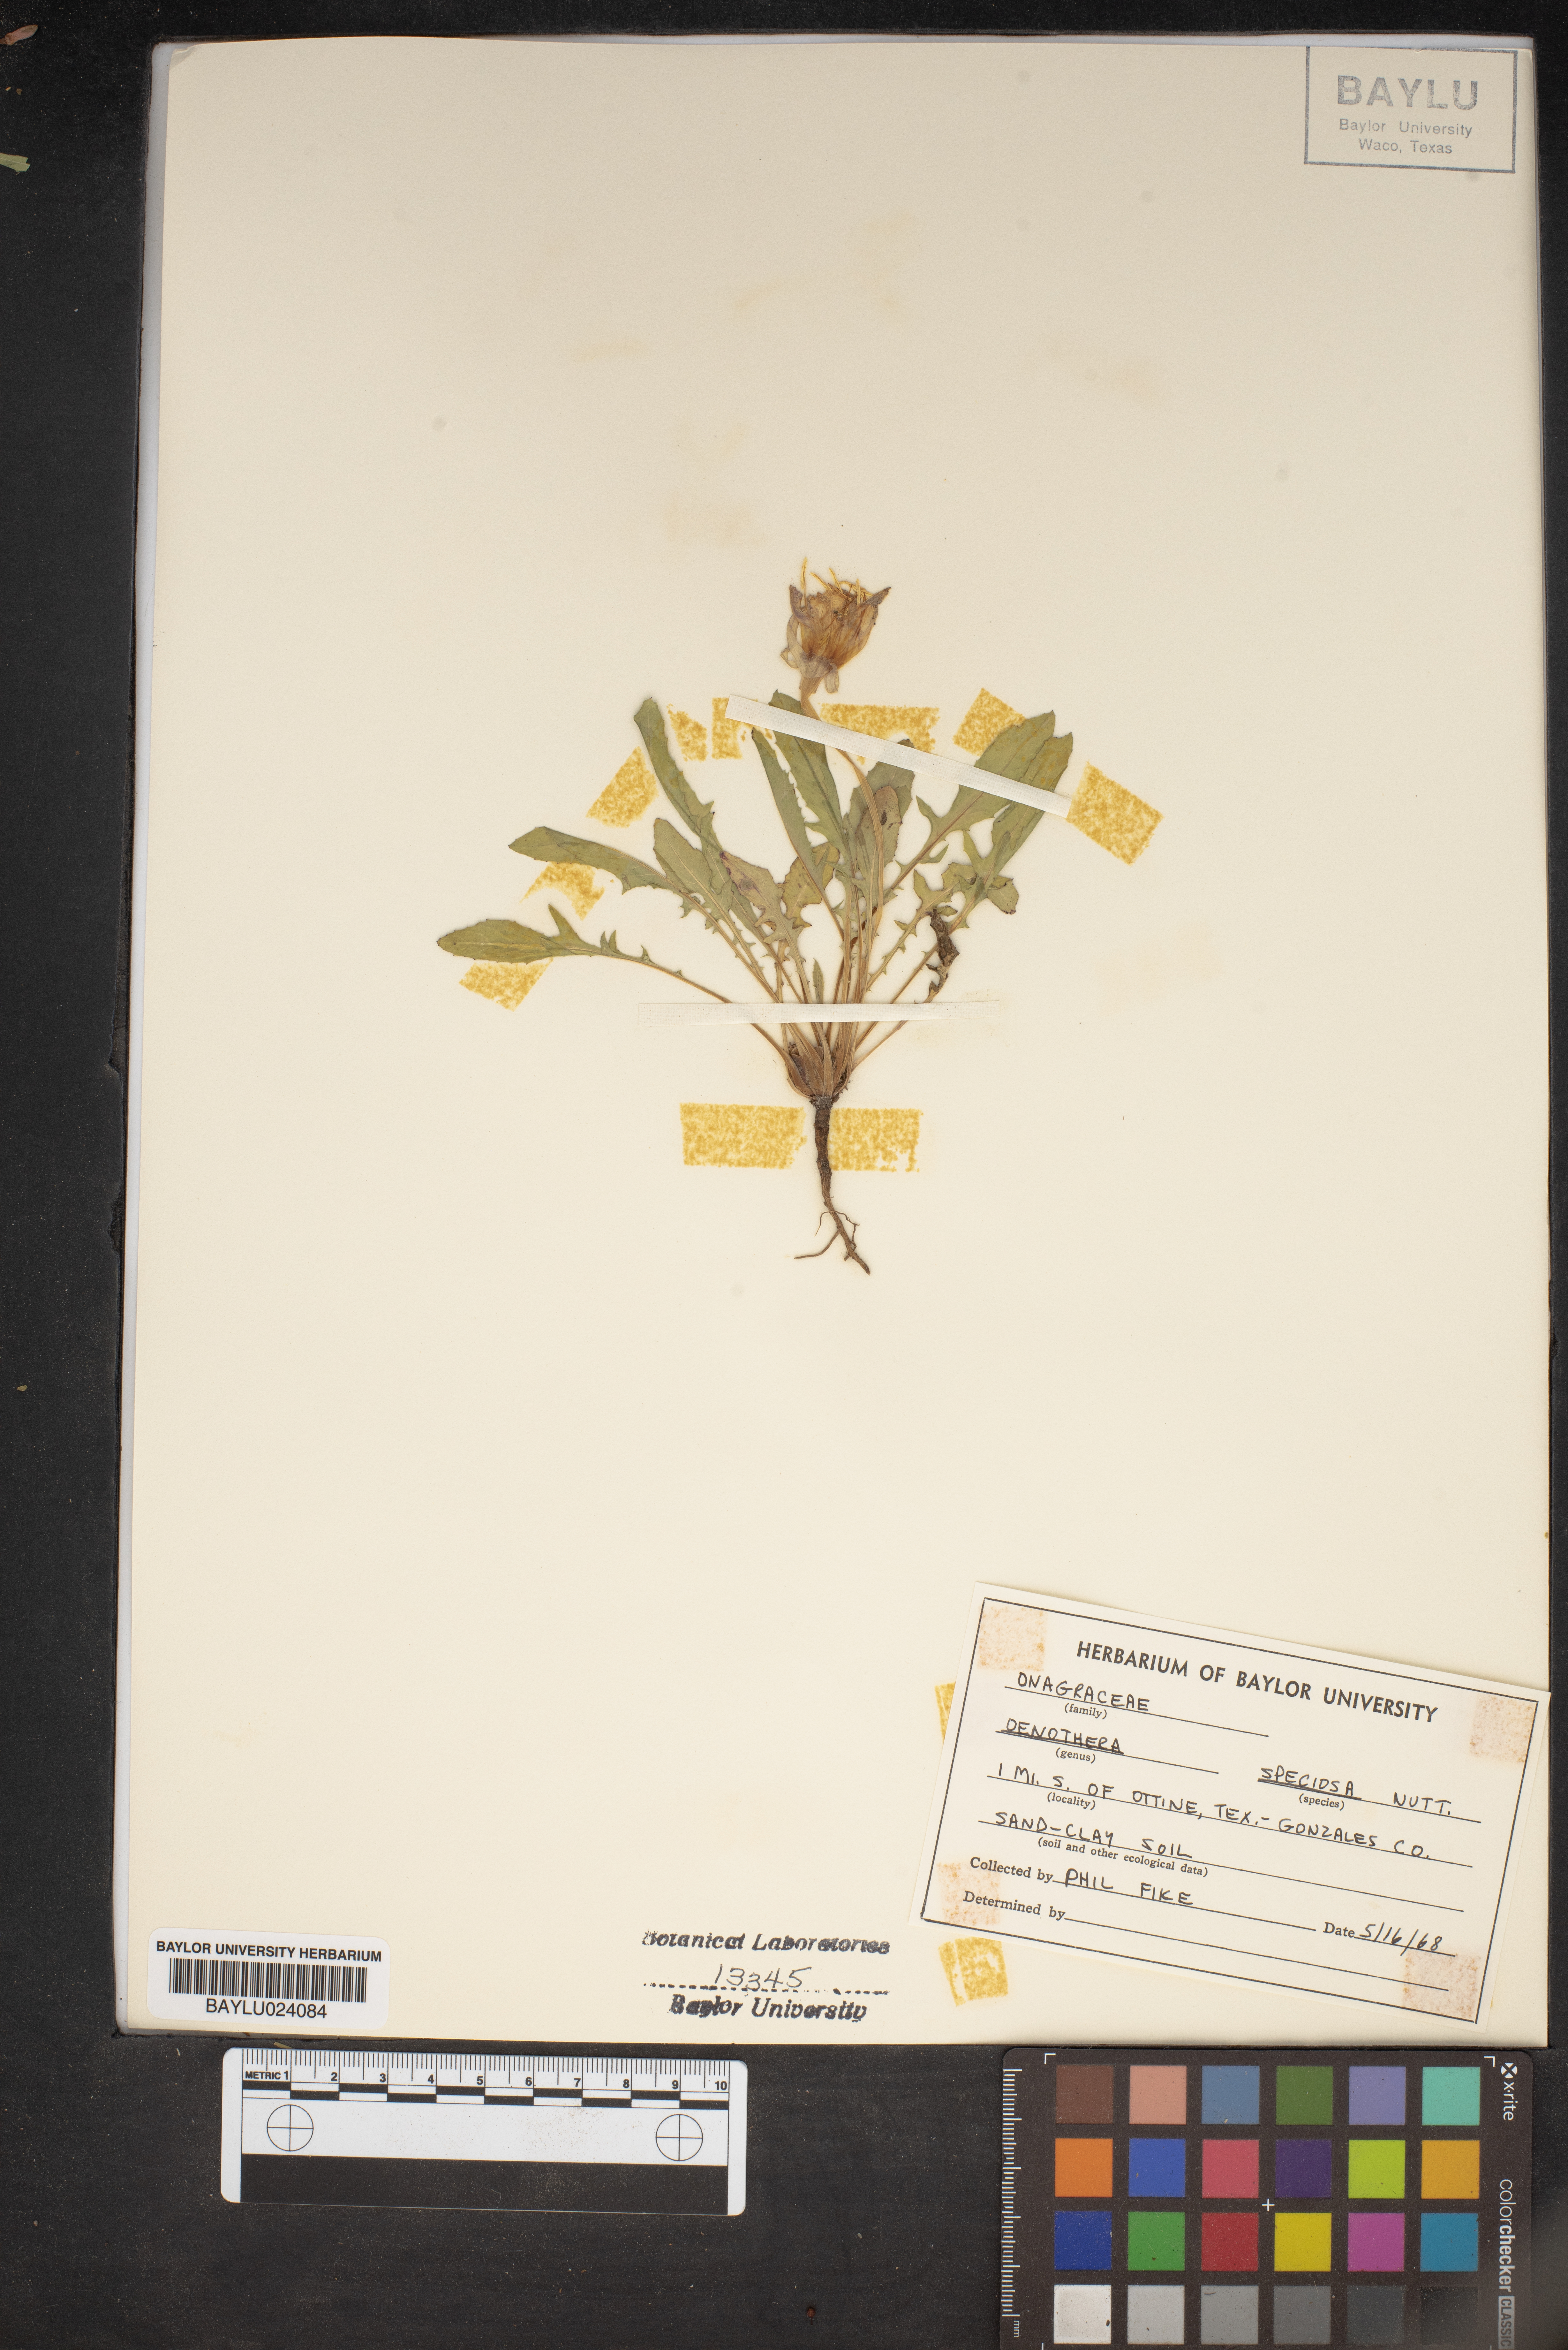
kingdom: Plantae
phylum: Tracheophyta
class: Magnoliopsida
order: Myrtales
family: Onagraceae
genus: Oenothera
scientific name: Oenothera speciosa
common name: White evening-primrose
